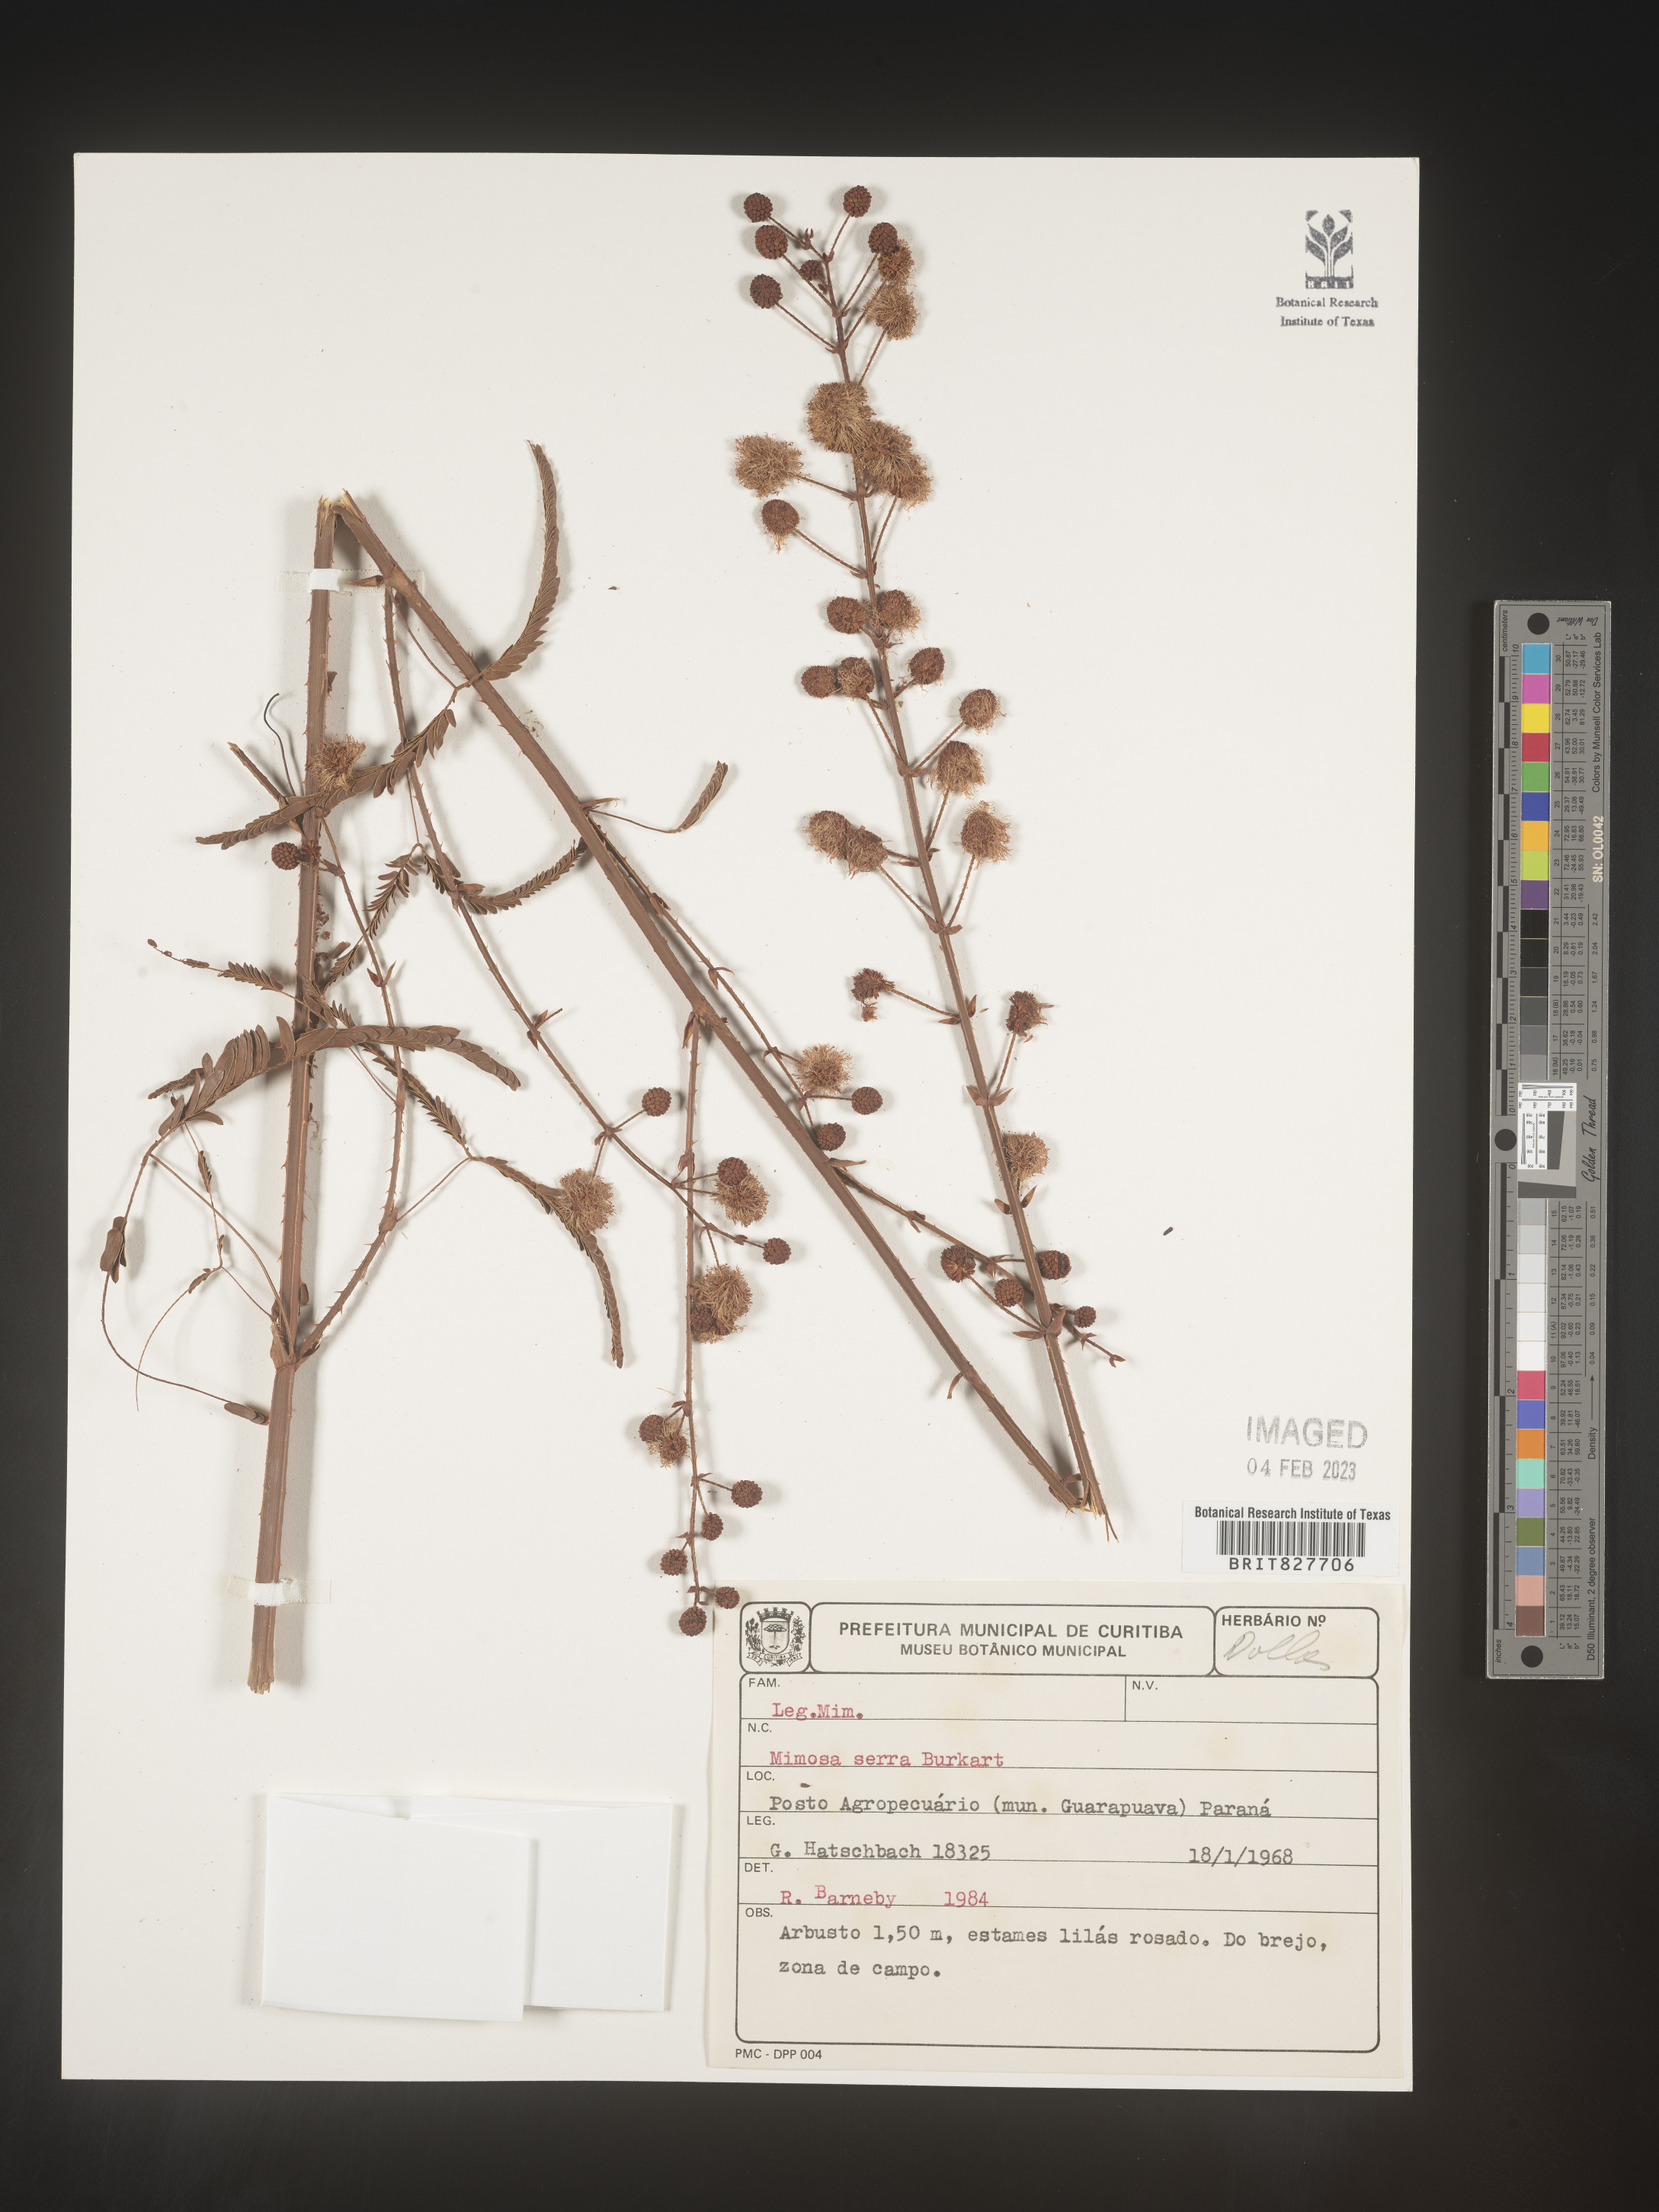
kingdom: Plantae
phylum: Tracheophyta
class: Magnoliopsida
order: Fabales
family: Fabaceae
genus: Mimosa
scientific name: Mimosa
